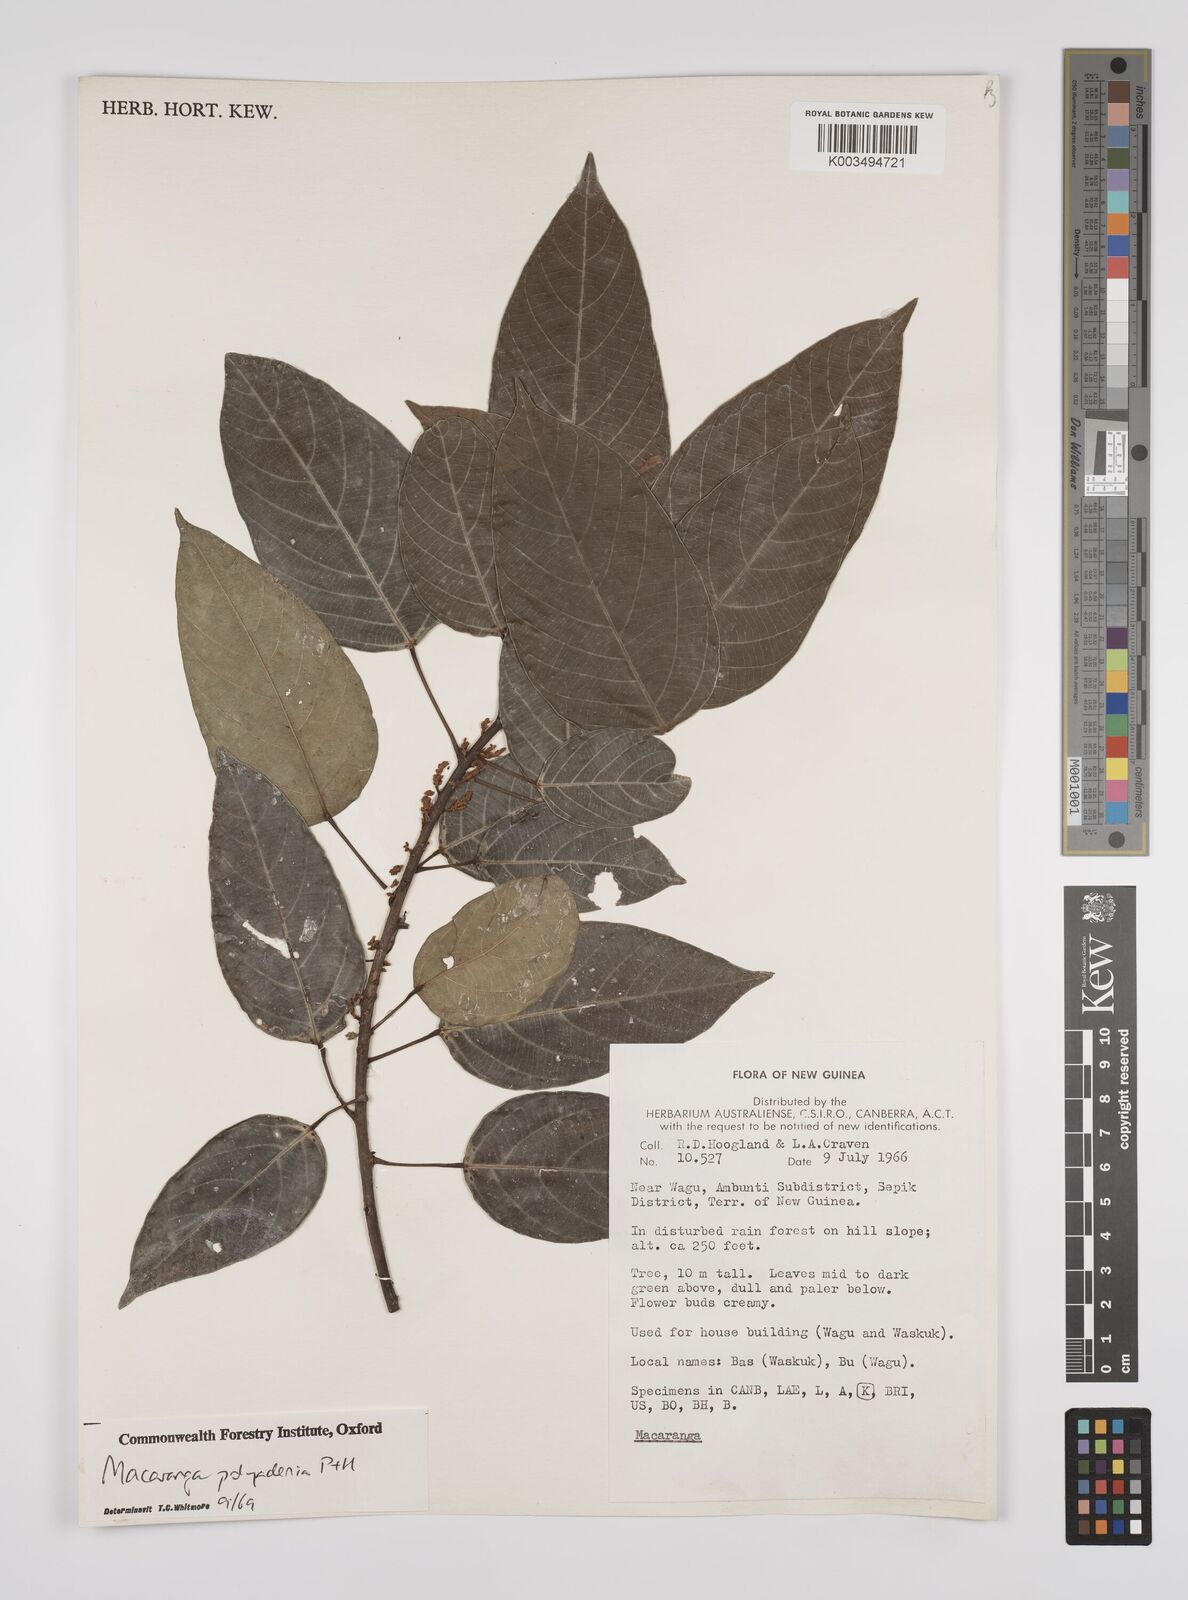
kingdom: Plantae
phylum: Tracheophyta
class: Magnoliopsida
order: Malpighiales
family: Euphorbiaceae
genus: Macaranga
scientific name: Macaranga polyadenia
